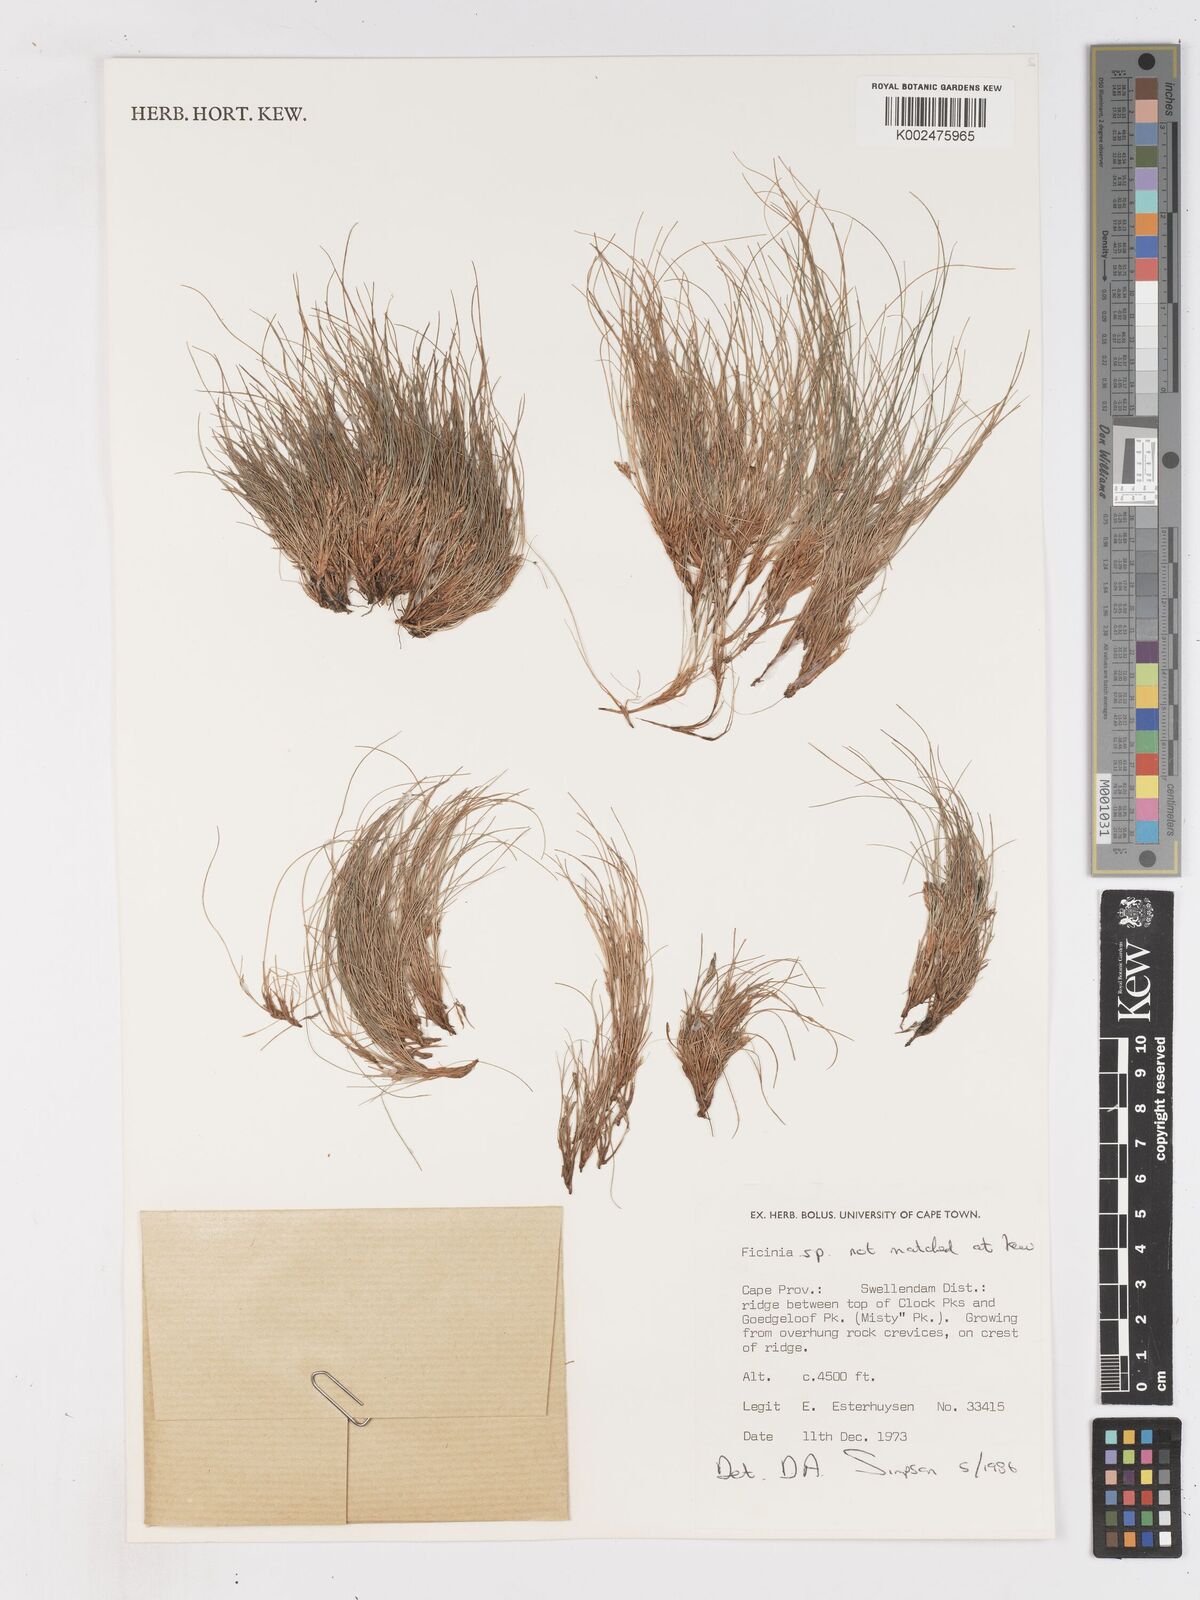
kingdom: Plantae
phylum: Tracheophyta
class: Liliopsida
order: Poales
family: Cyperaceae
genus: Ficinia
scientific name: Ficinia esterhuyseniae
